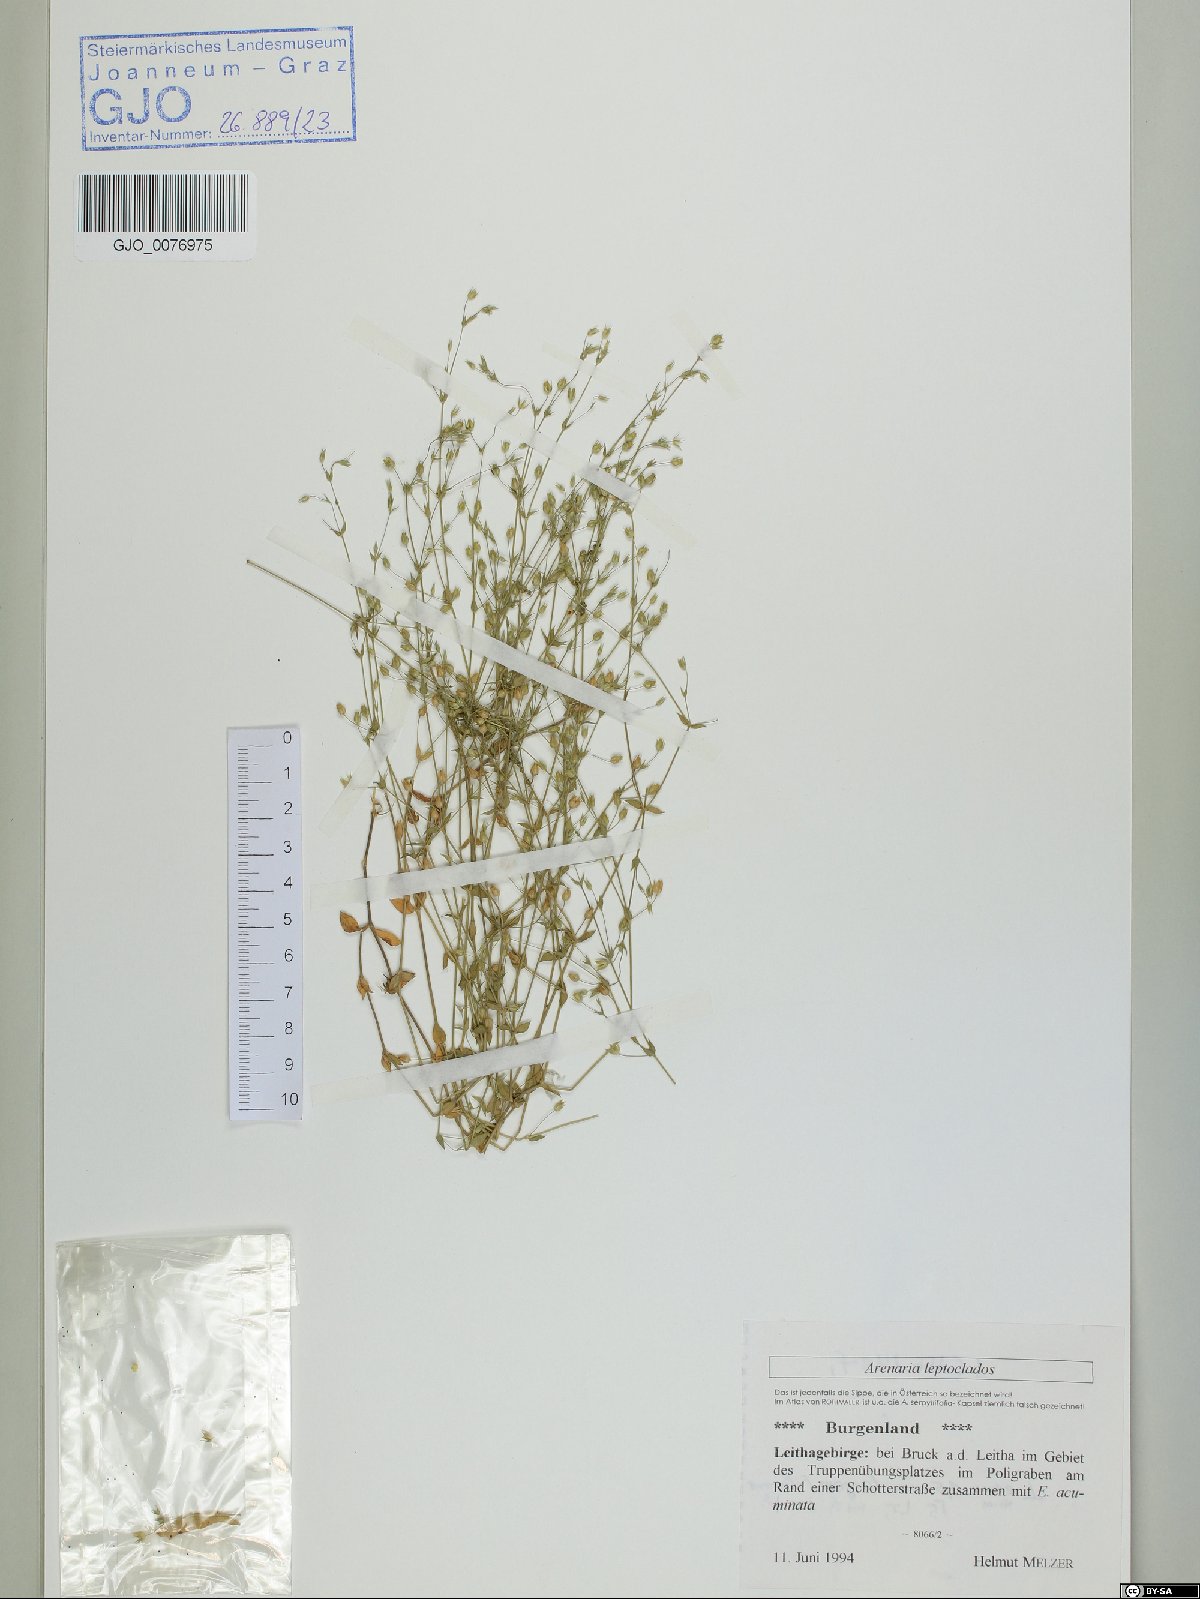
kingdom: Plantae
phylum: Tracheophyta
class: Magnoliopsida
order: Caryophyllales
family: Caryophyllaceae
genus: Arenaria
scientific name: Arenaria leptoclados
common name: Thyme-leaved sandwort
